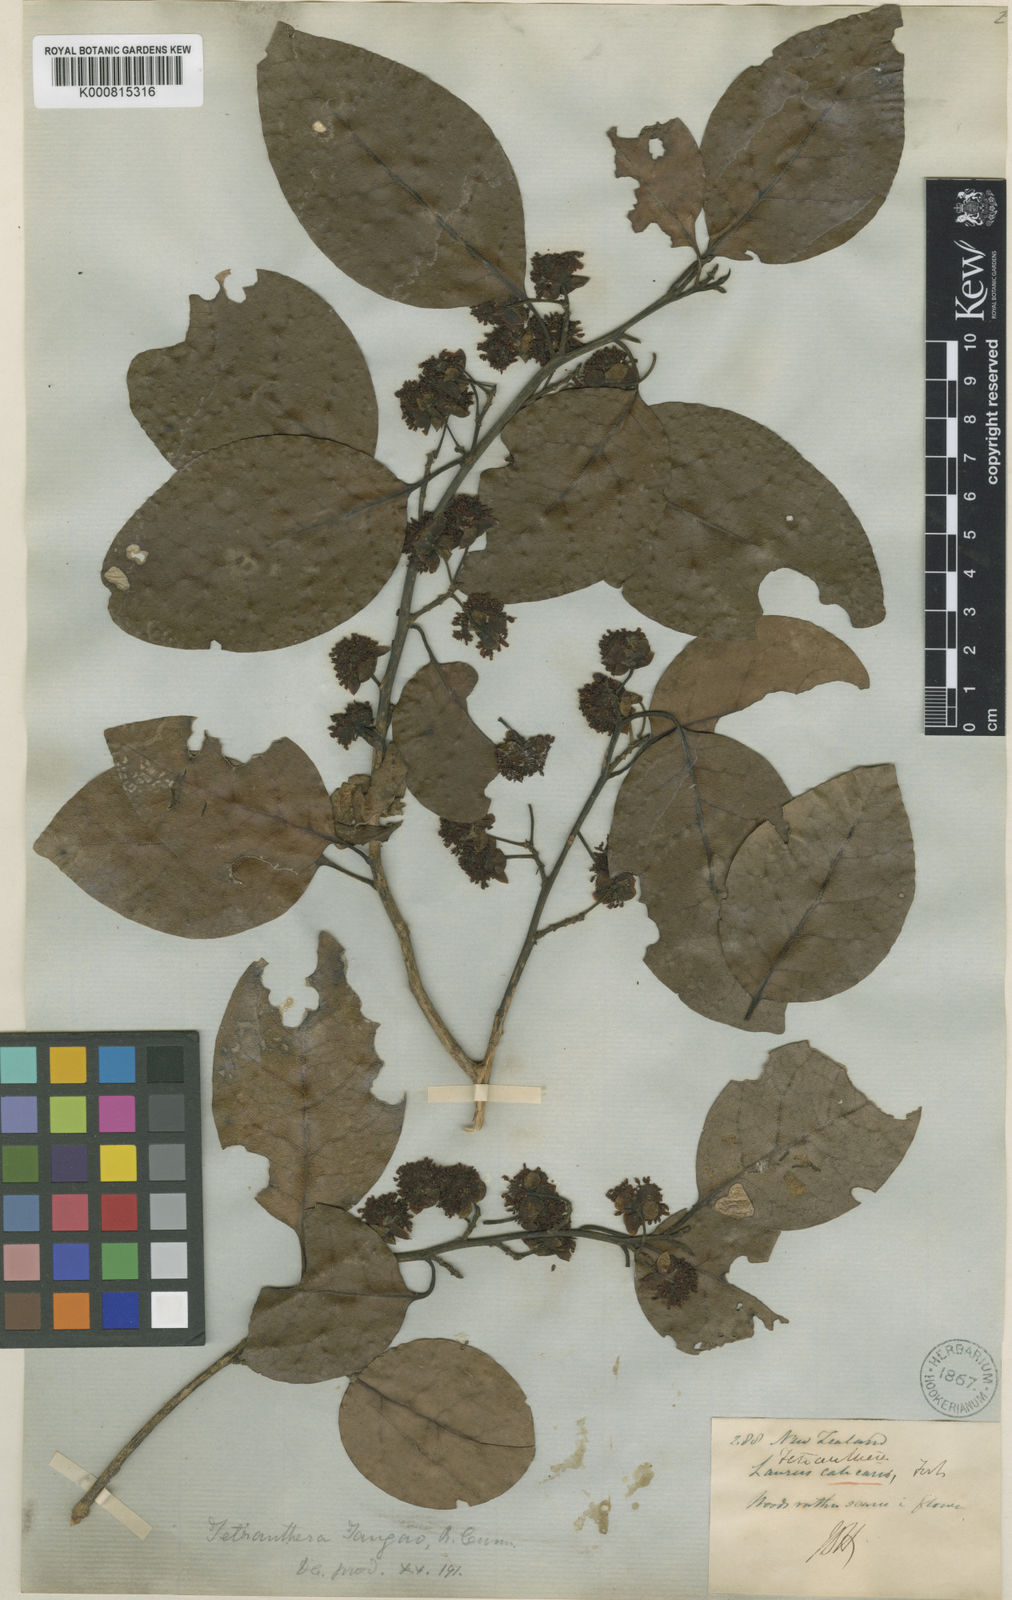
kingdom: Plantae
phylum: Tracheophyta
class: Magnoliopsida
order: Laurales
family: Lauraceae
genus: Litsea
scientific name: Litsea calicaris
